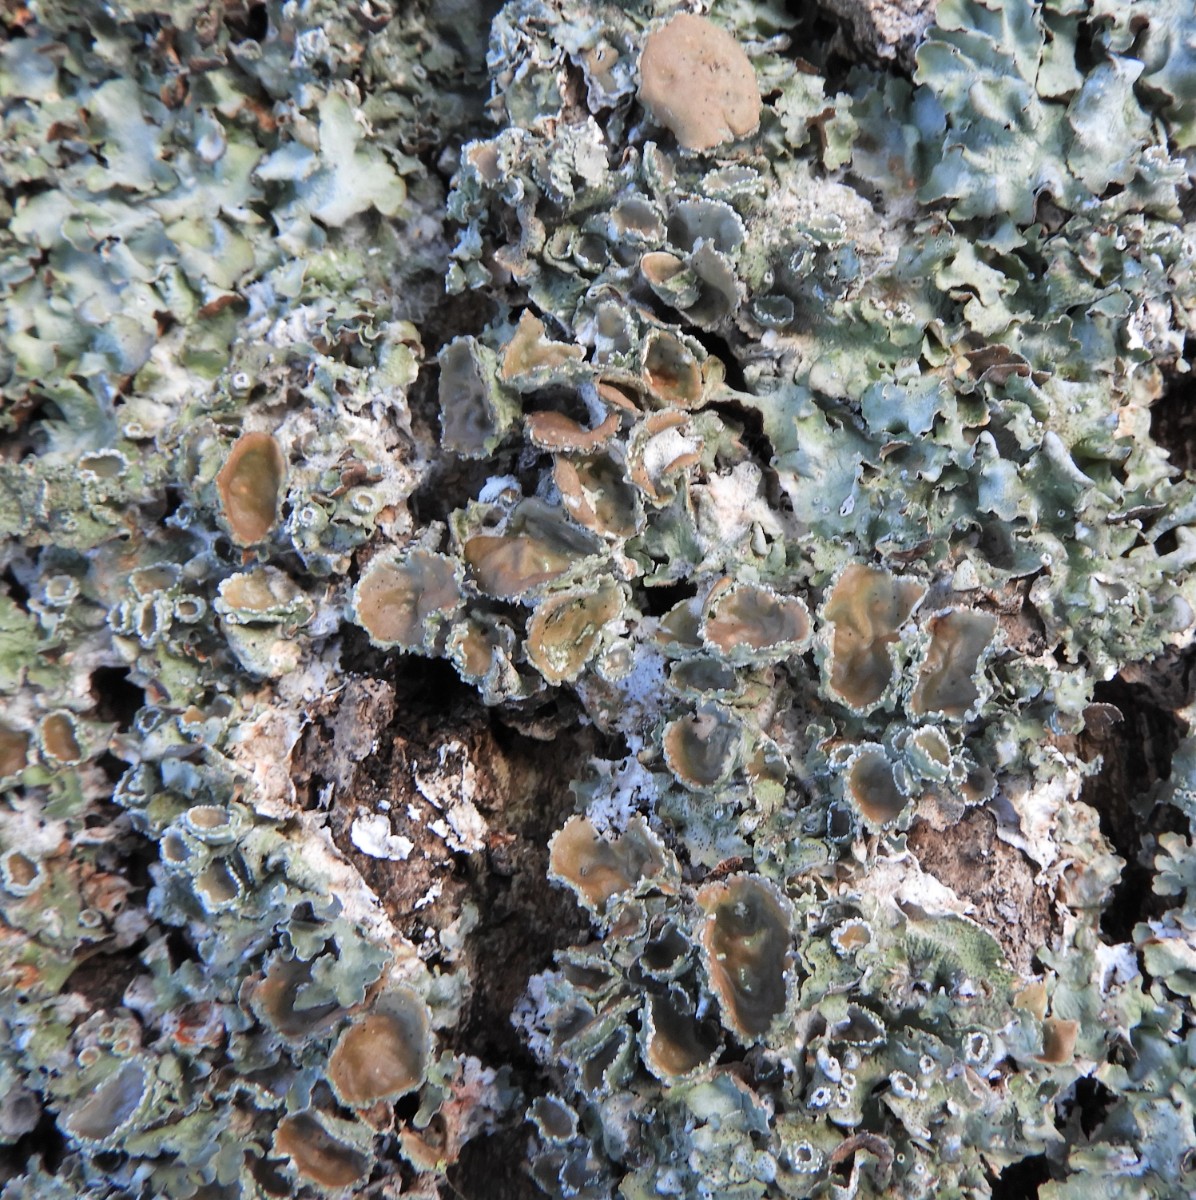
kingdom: Fungi
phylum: Ascomycota
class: Lecanoromycetes
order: Lecanorales
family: Parmeliaceae
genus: Pleurosticta
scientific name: Pleurosticta acetabulum
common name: stor skållav
